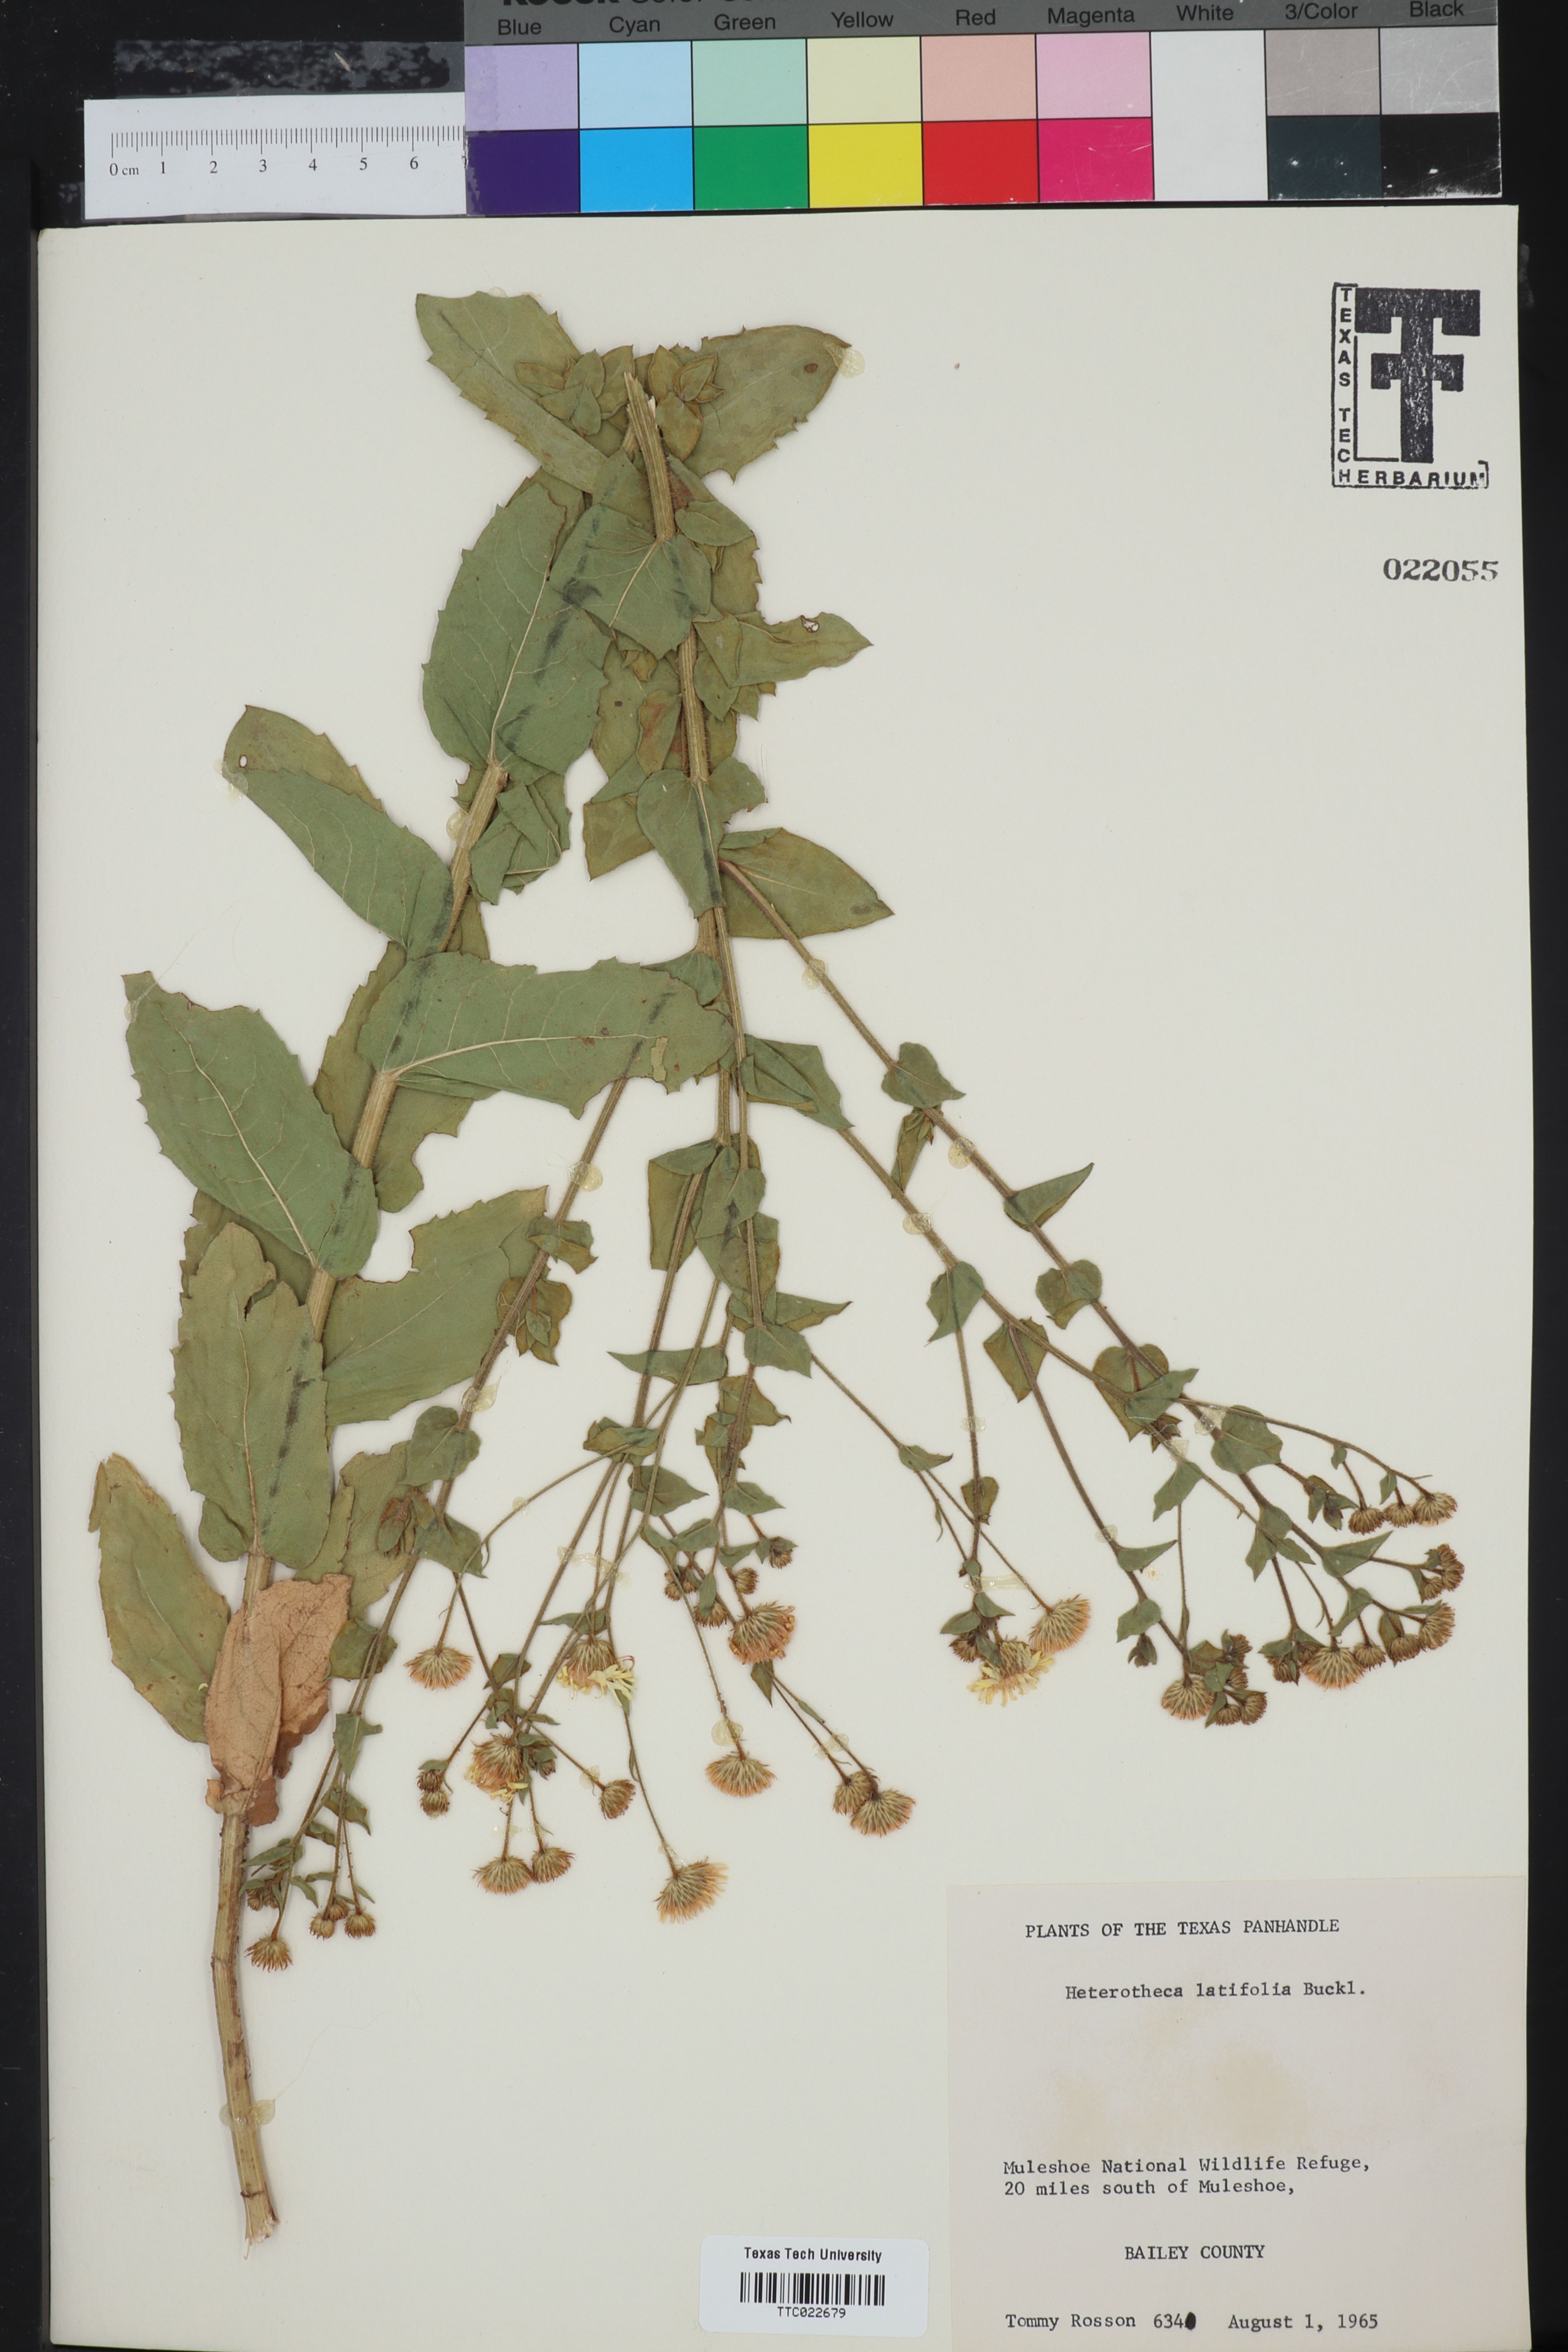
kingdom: Plantae
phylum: Tracheophyta
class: Magnoliopsida
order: Asterales
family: Asteraceae
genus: Heterotheca
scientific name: Heterotheca subaxillaris
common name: Camphorweed
